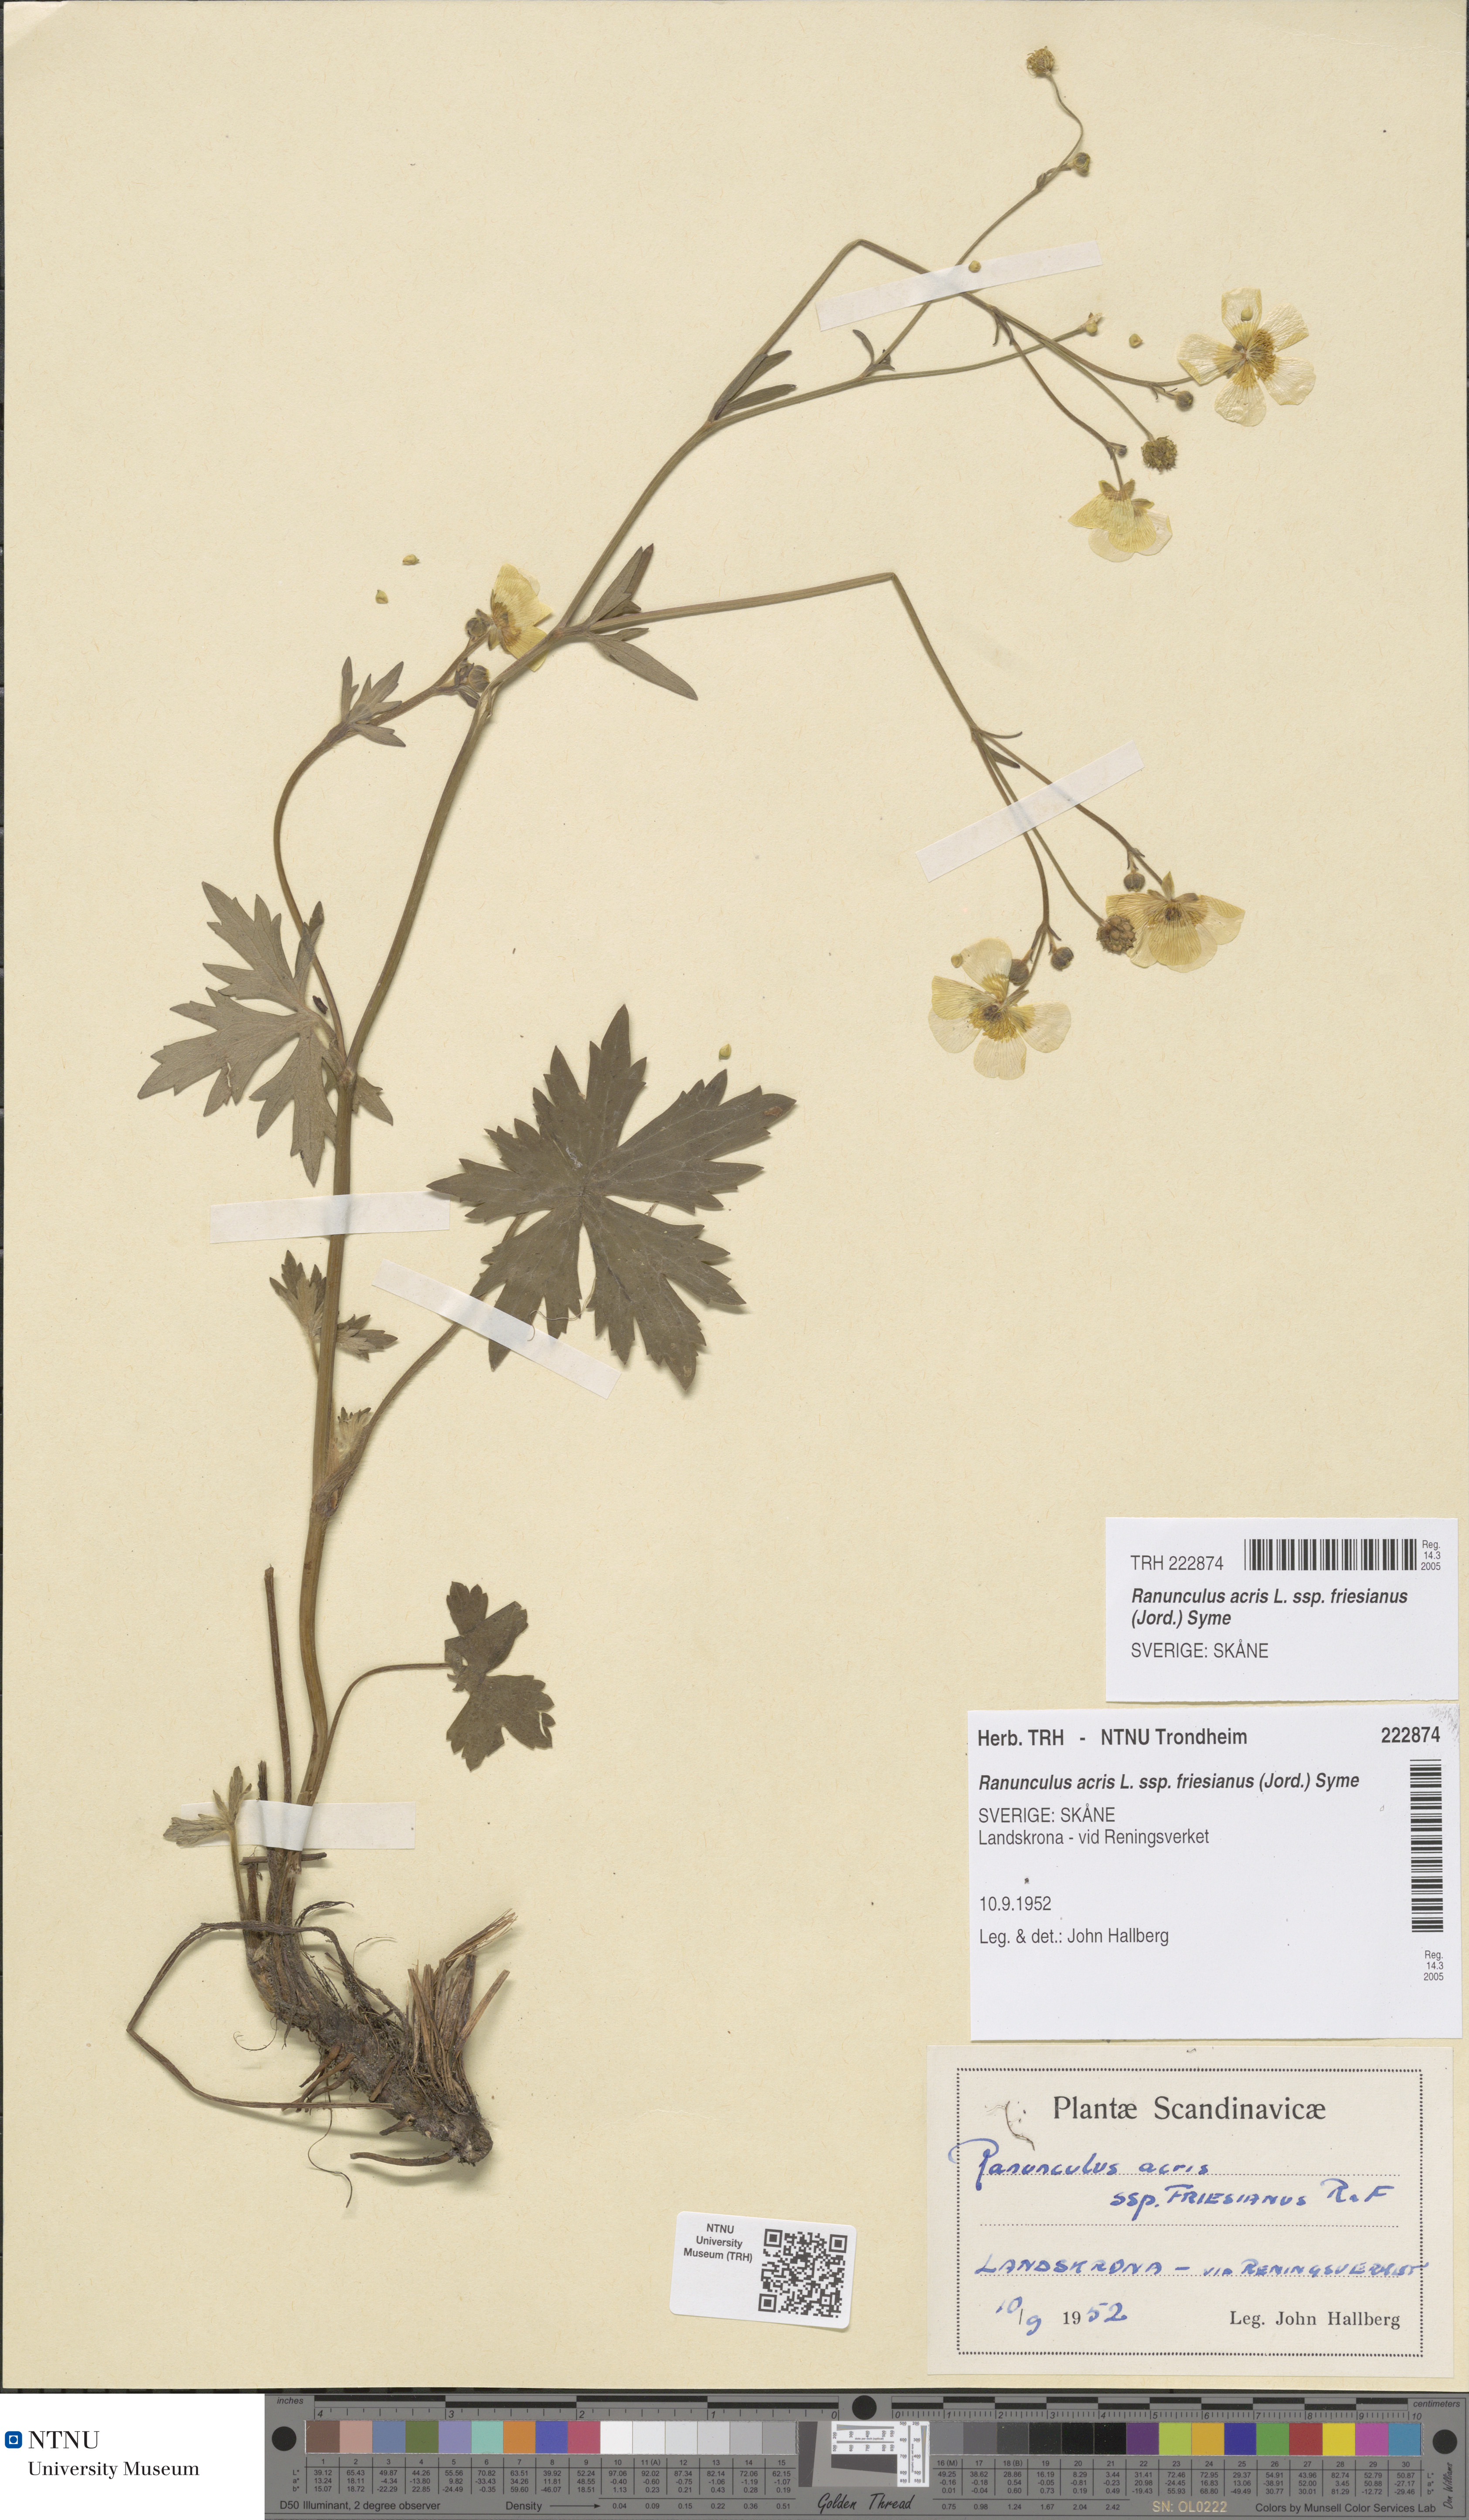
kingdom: Plantae
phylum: Tracheophyta
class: Magnoliopsida
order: Ranunculales
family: Ranunculaceae
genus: Ranunculus
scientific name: Ranunculus acris
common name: Meadow buttercup
